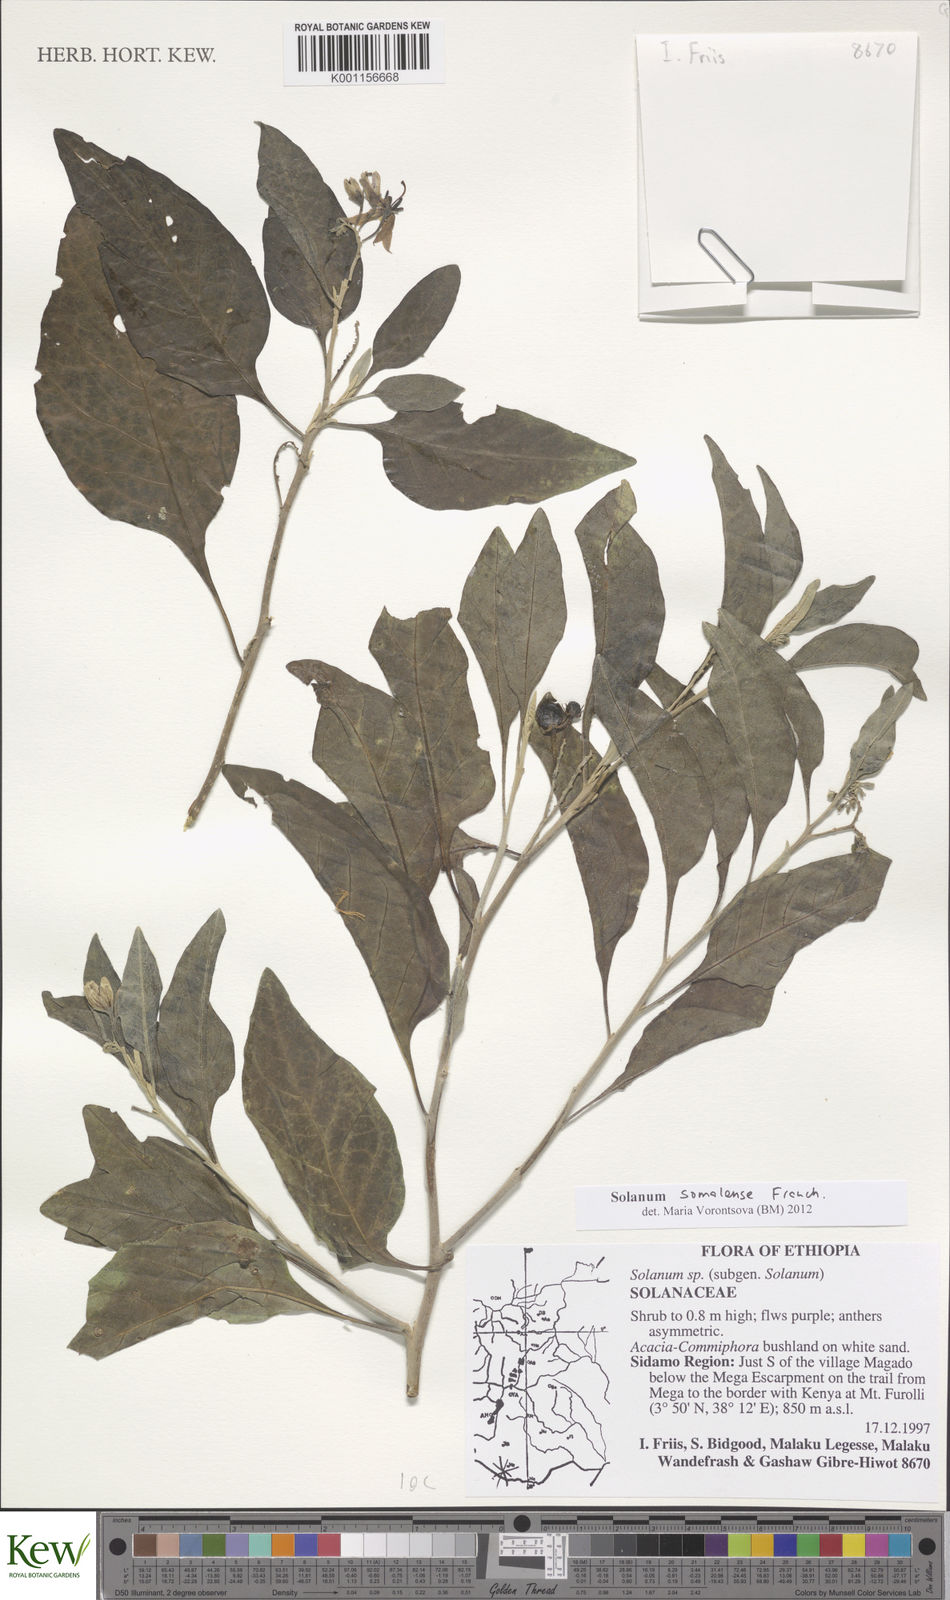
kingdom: Plantae
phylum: Tracheophyta
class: Magnoliopsida
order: Solanales
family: Solanaceae
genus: Solanum
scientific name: Solanum somalense
